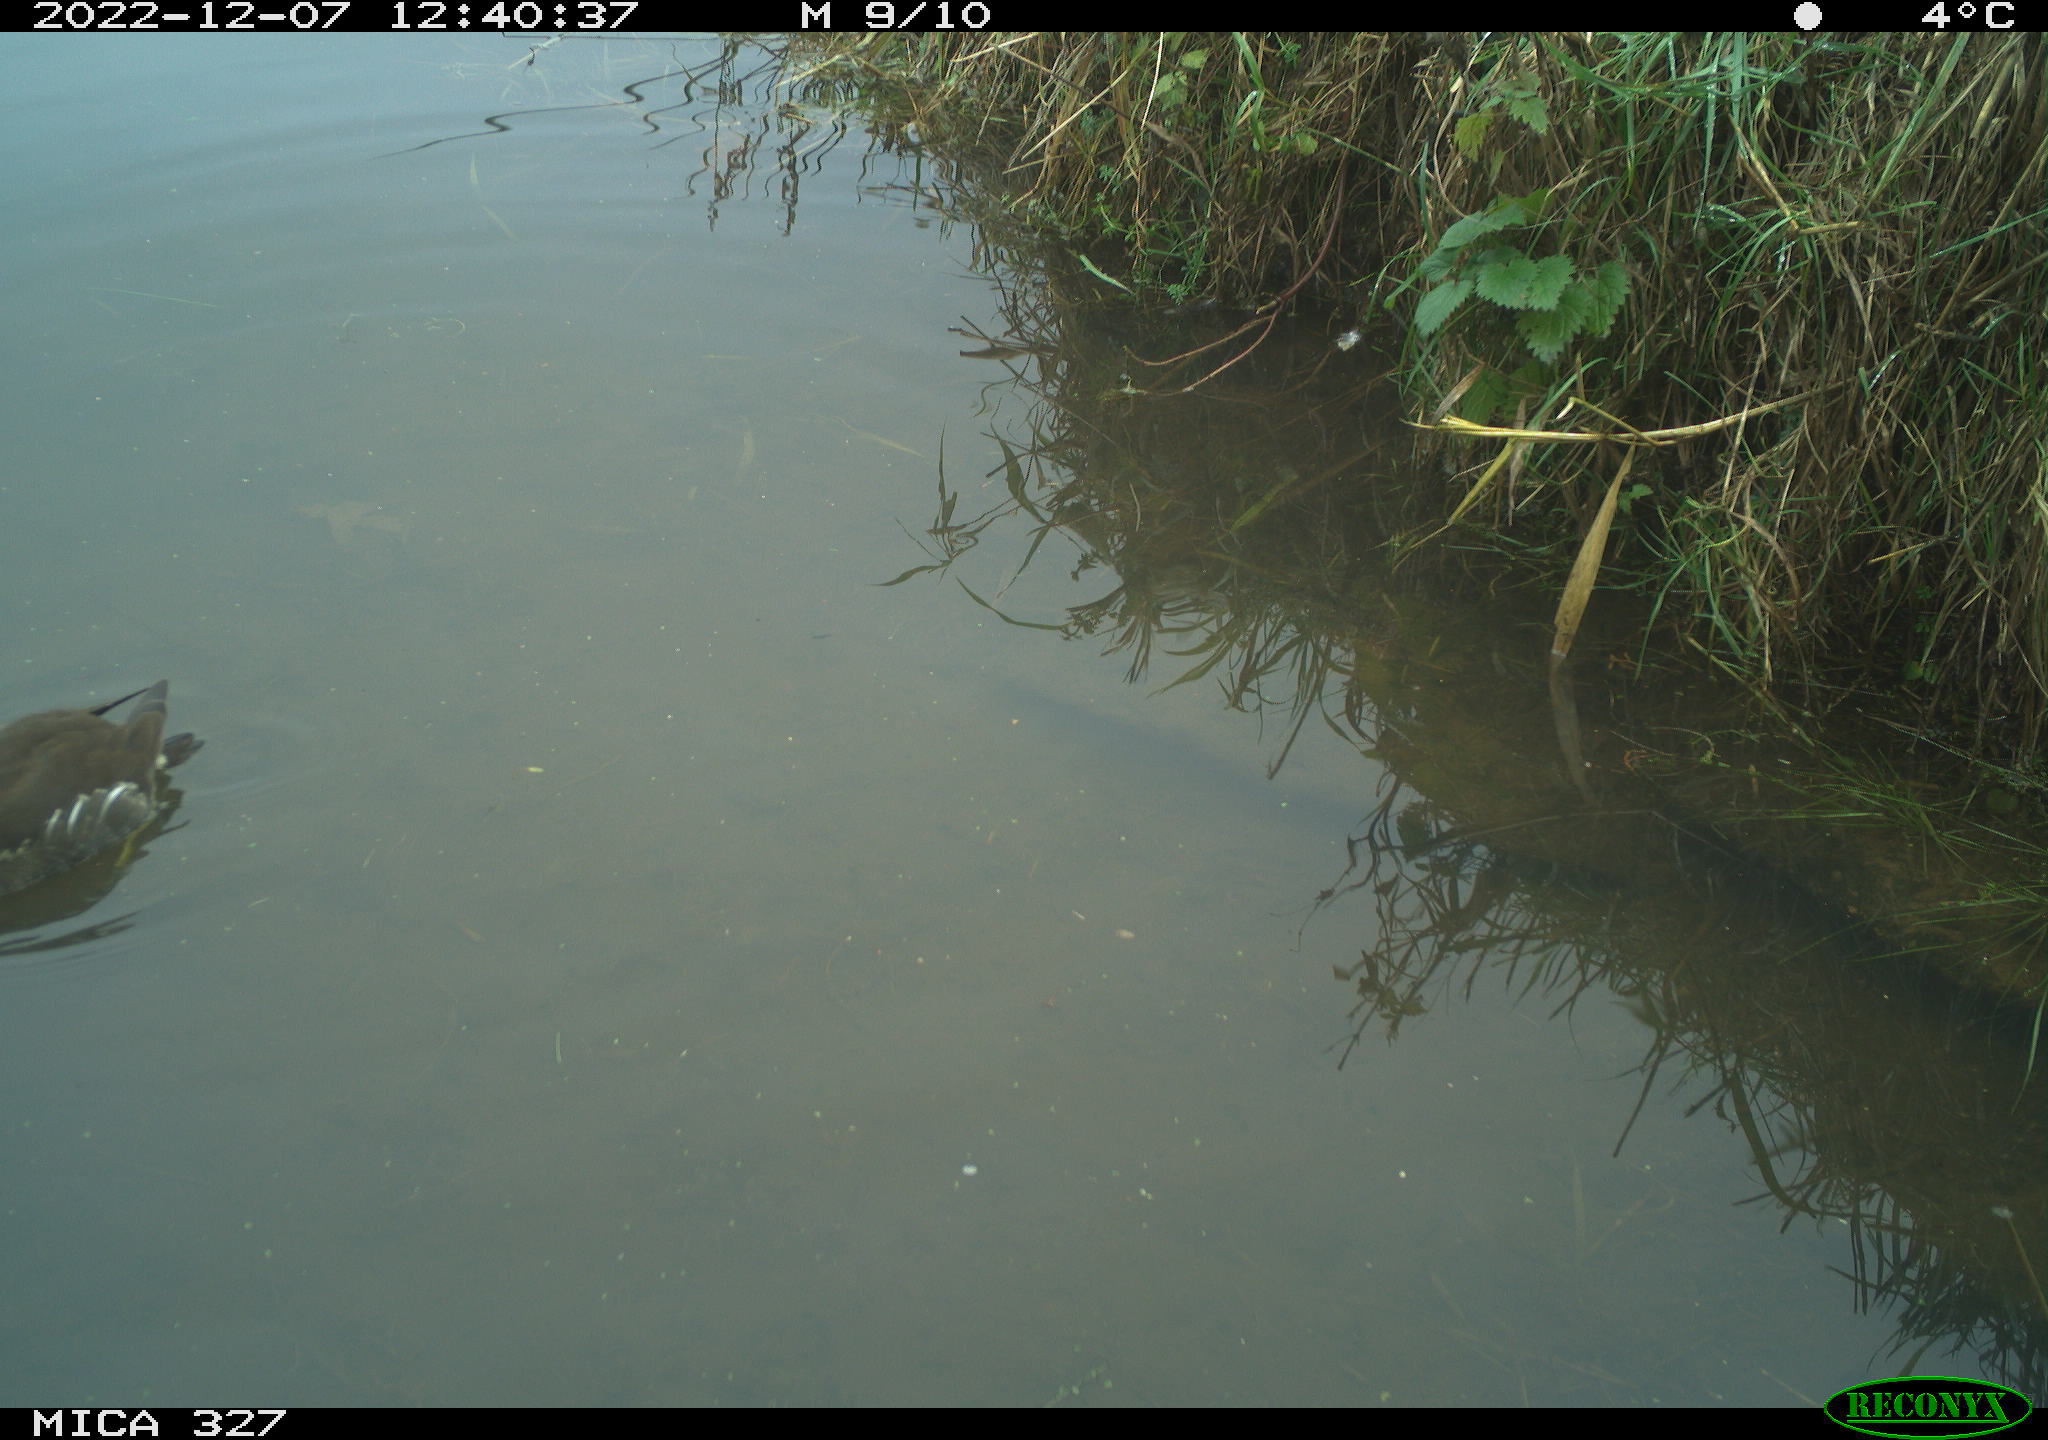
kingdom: Animalia
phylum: Chordata
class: Aves
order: Gruiformes
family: Rallidae
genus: Gallinula
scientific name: Gallinula chloropus
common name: Common moorhen
